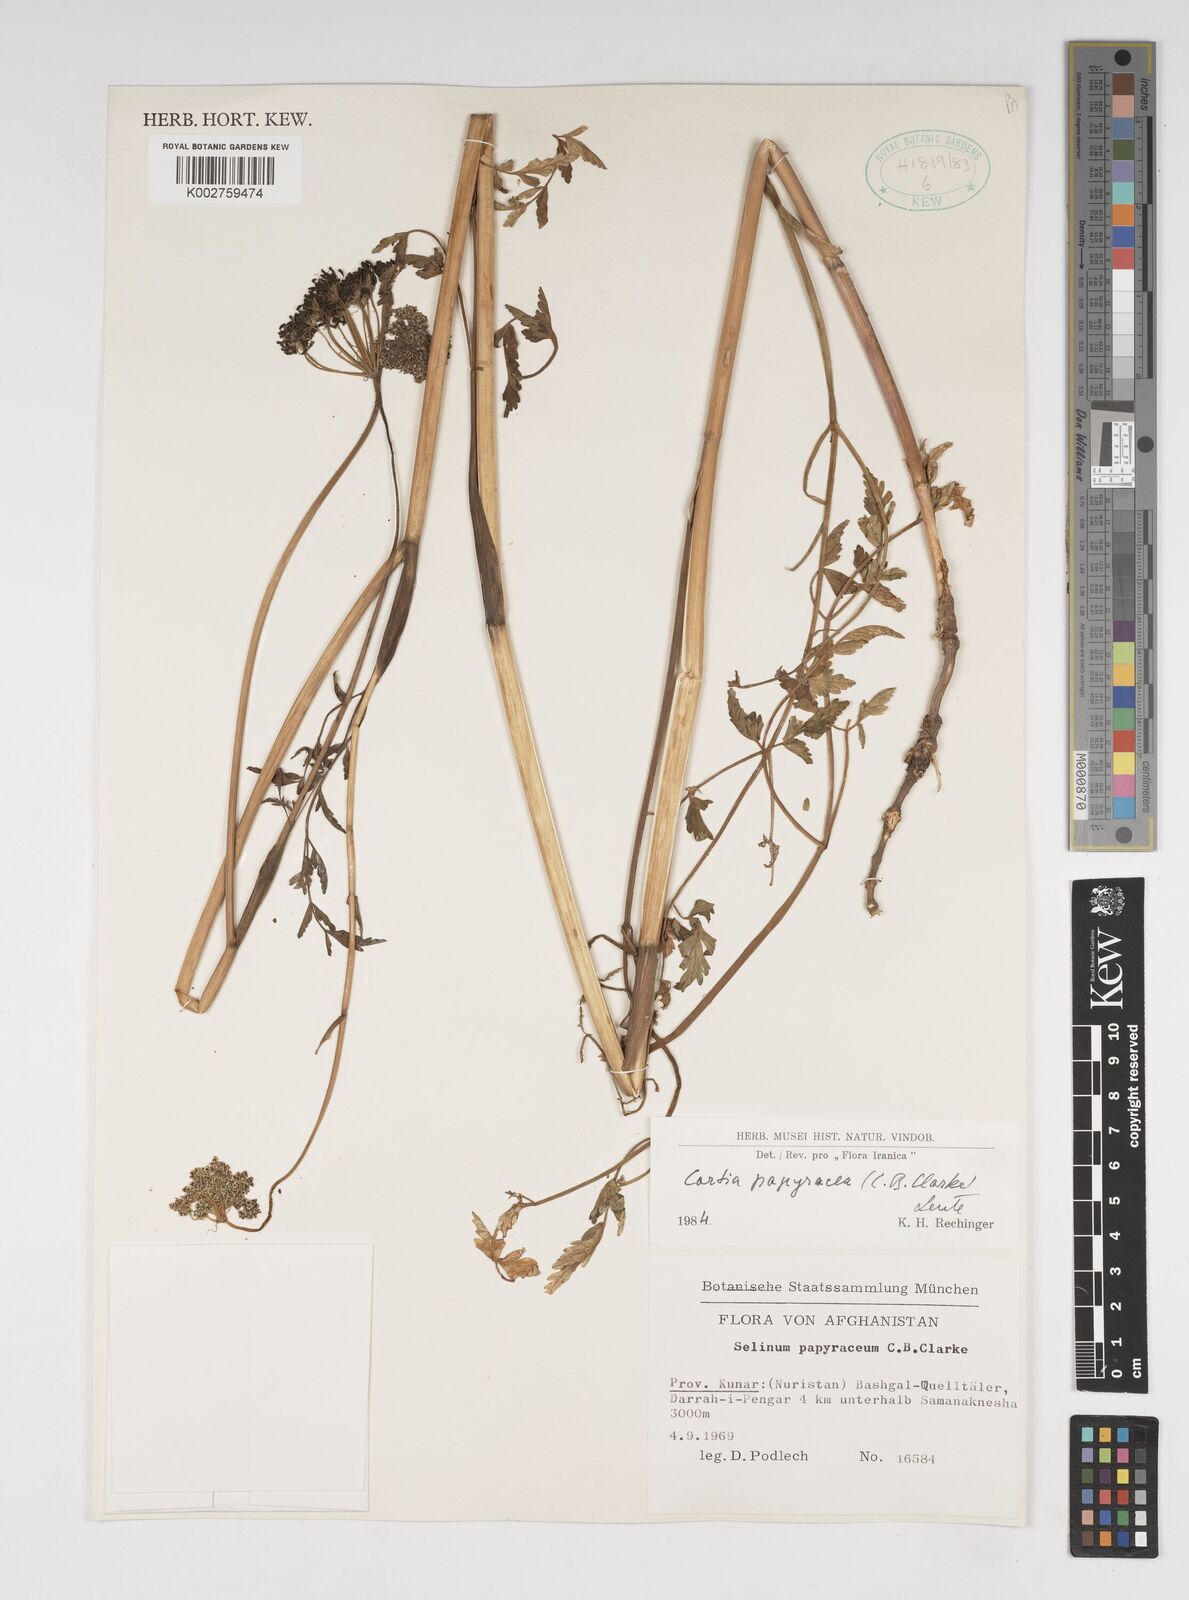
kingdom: Plantae
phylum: Tracheophyta
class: Magnoliopsida
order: Apiales
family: Apiaceae
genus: Conioselinum
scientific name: Conioselinum tataricum
